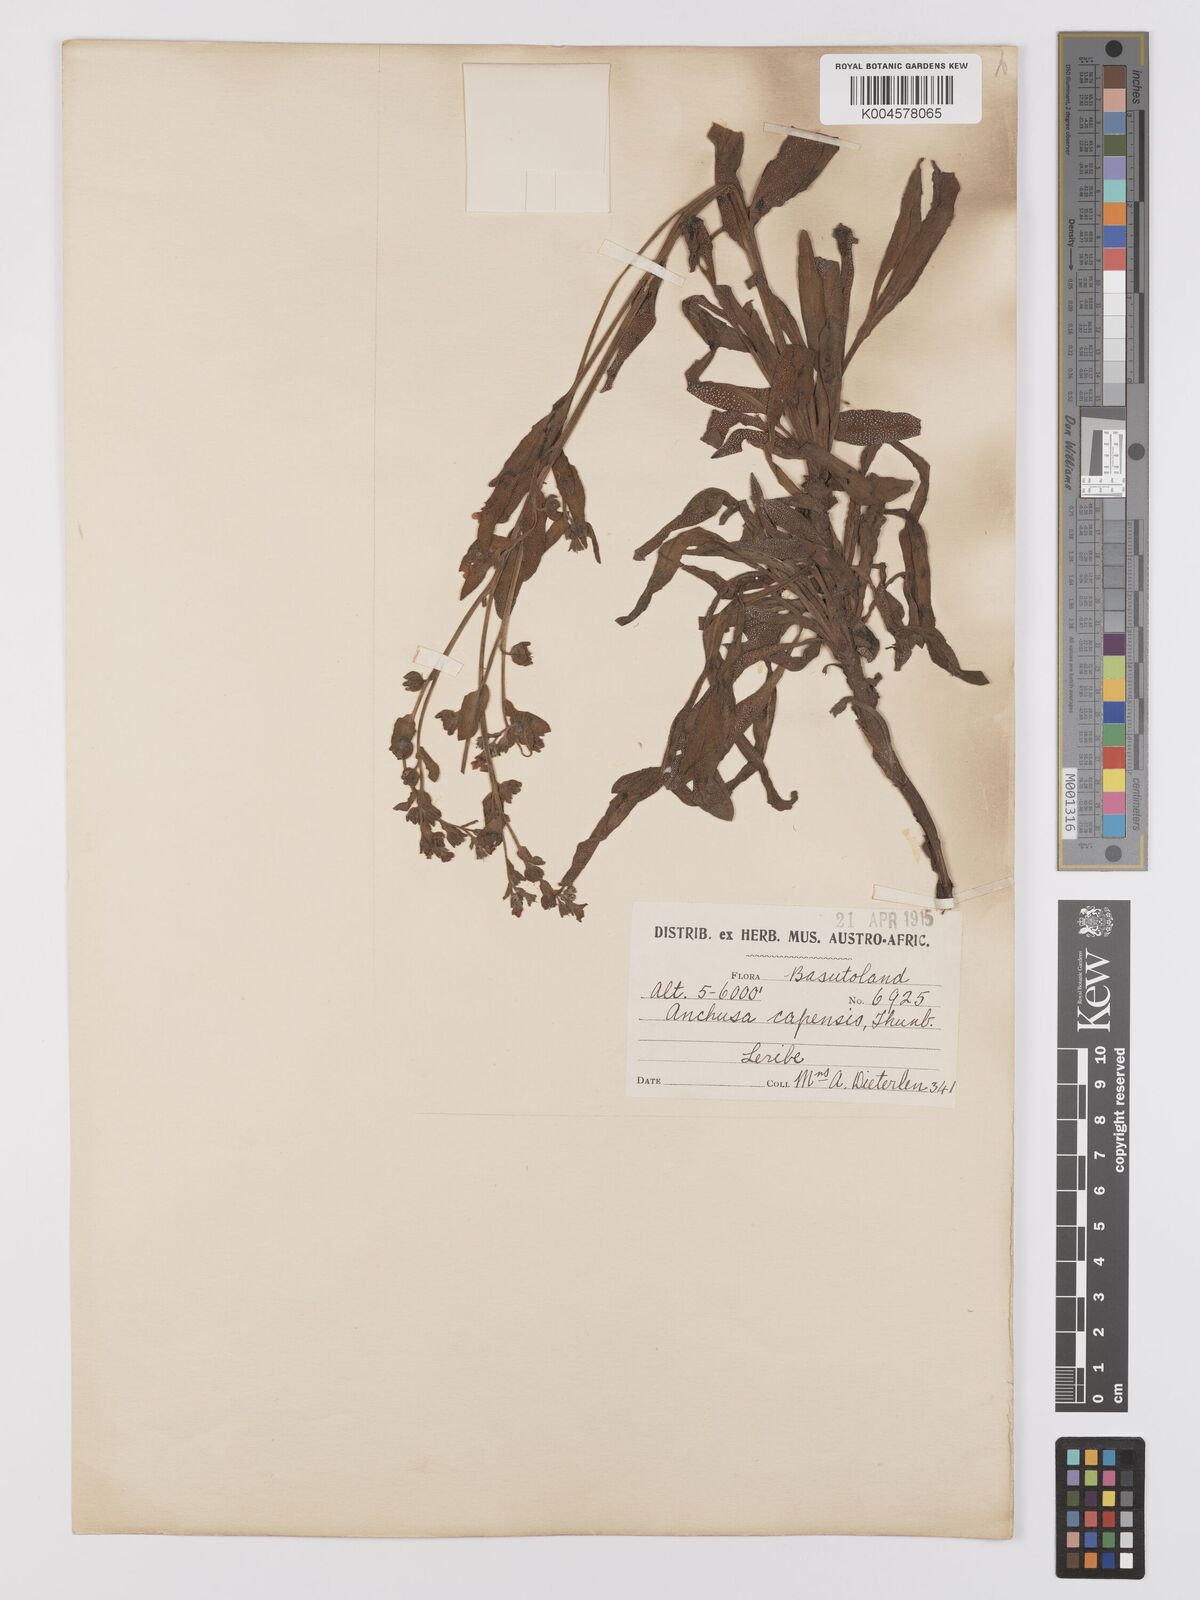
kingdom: Plantae
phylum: Tracheophyta
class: Magnoliopsida
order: Boraginales
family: Boraginaceae
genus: Anchusa
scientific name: Anchusa capensis
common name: Cape bugloss
